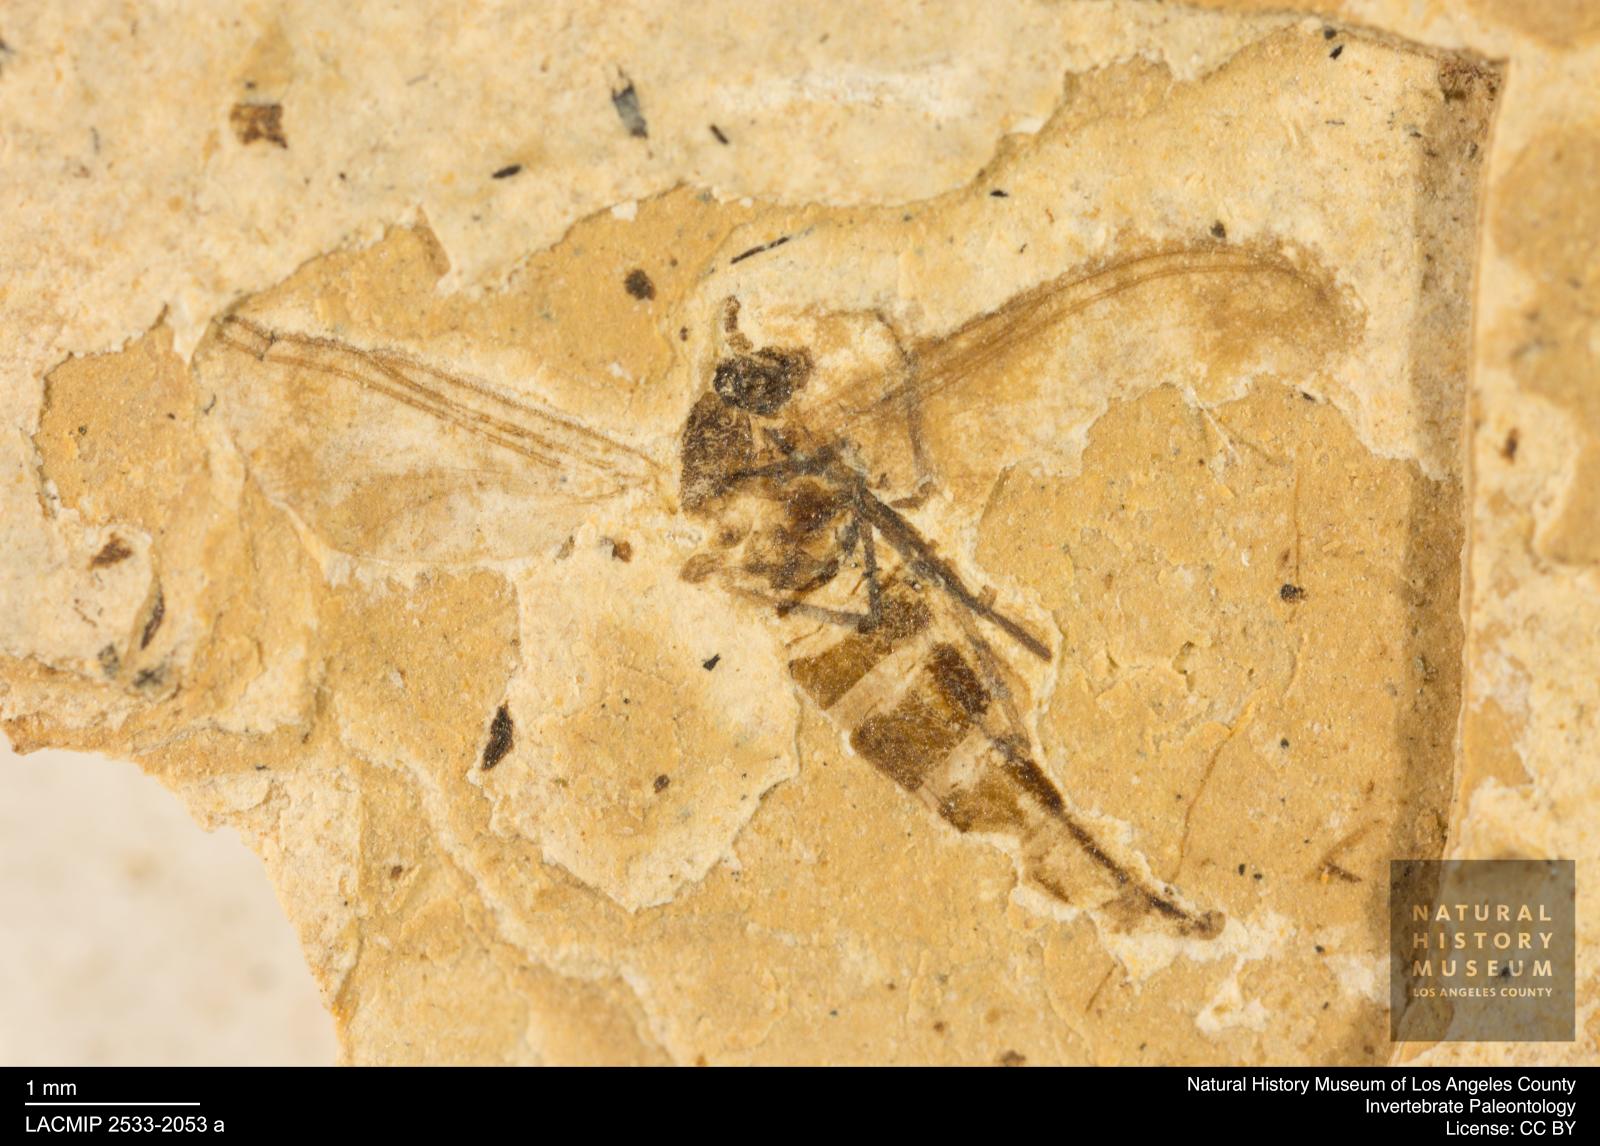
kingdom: Animalia
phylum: Arthropoda
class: Insecta
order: Diptera
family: Sciaridae
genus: Sciara
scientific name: Sciara atavina
